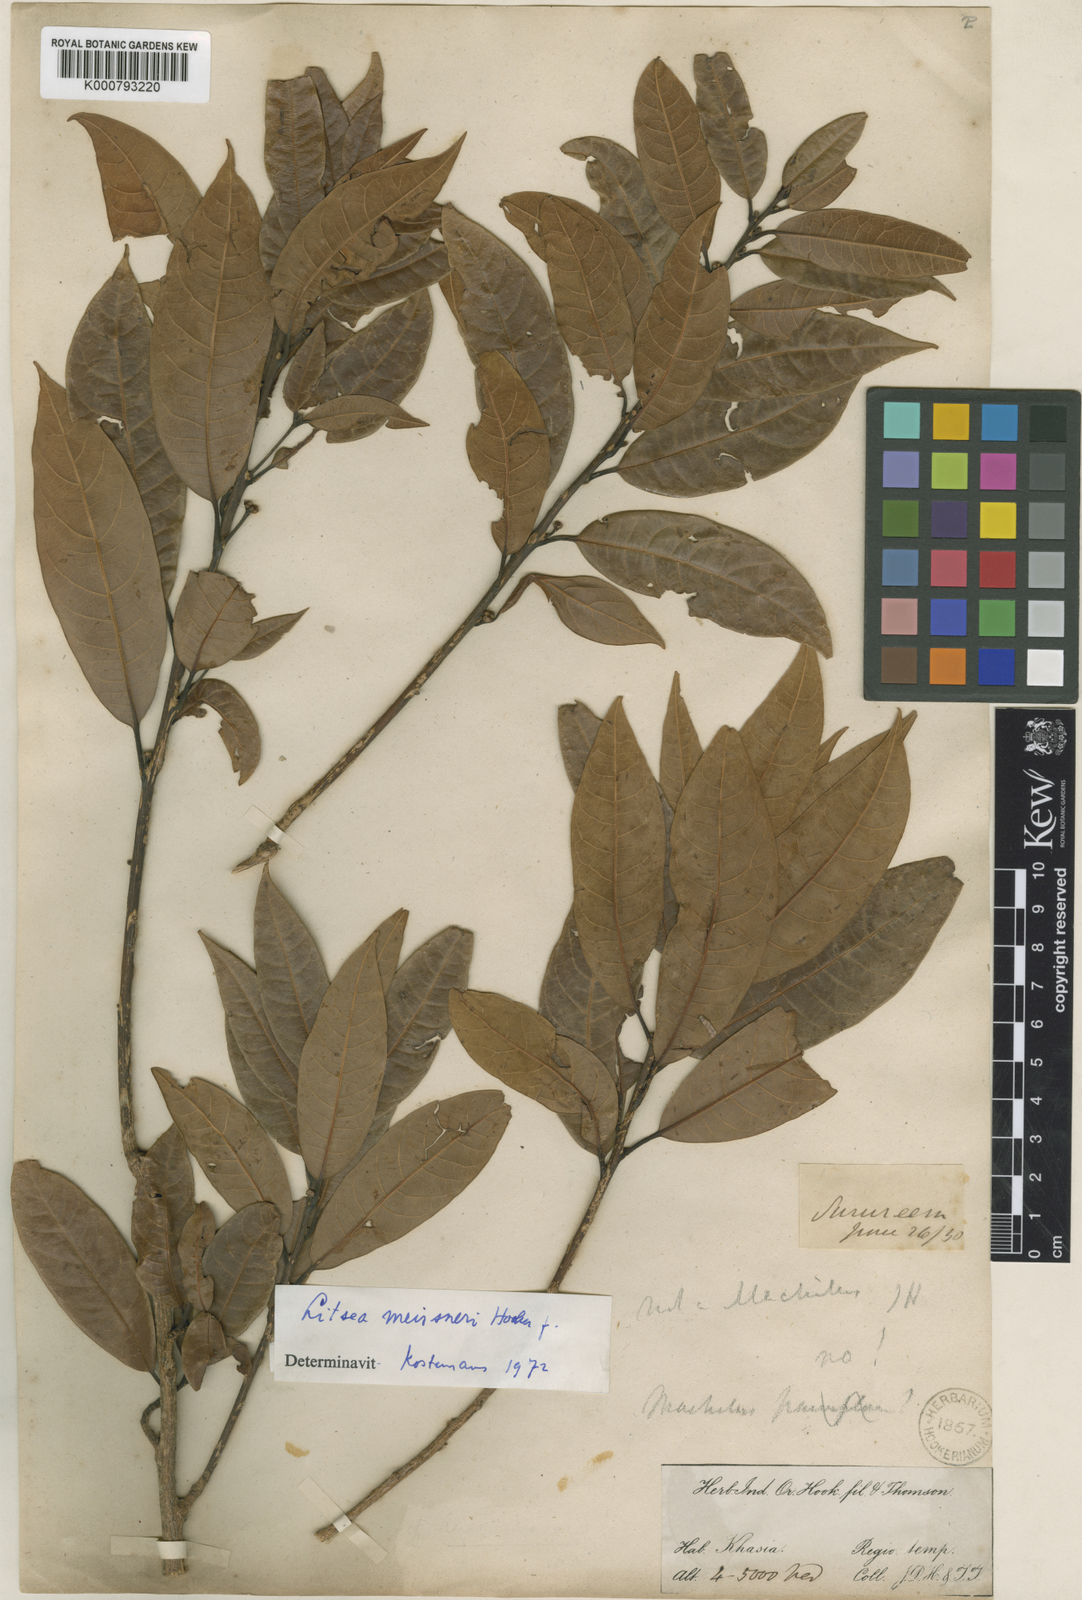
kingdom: Plantae
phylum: Tracheophyta
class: Magnoliopsida
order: Laurales
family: Lauraceae
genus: Litsea
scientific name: Litsea khasyana
